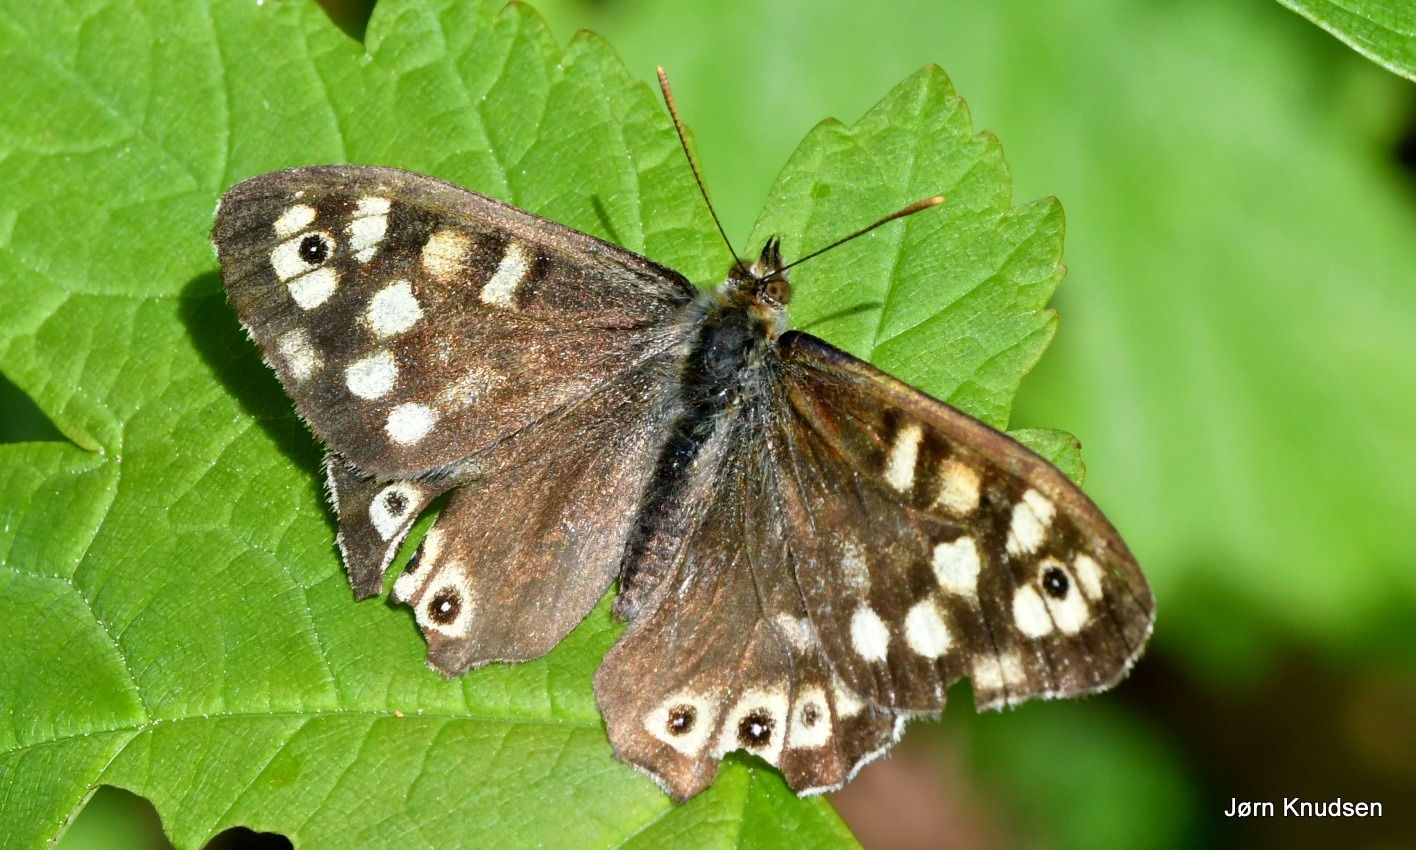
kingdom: Animalia
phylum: Arthropoda
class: Insecta
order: Lepidoptera
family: Nymphalidae
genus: Pararge
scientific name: Pararge aegeria
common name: Skovrandøje
